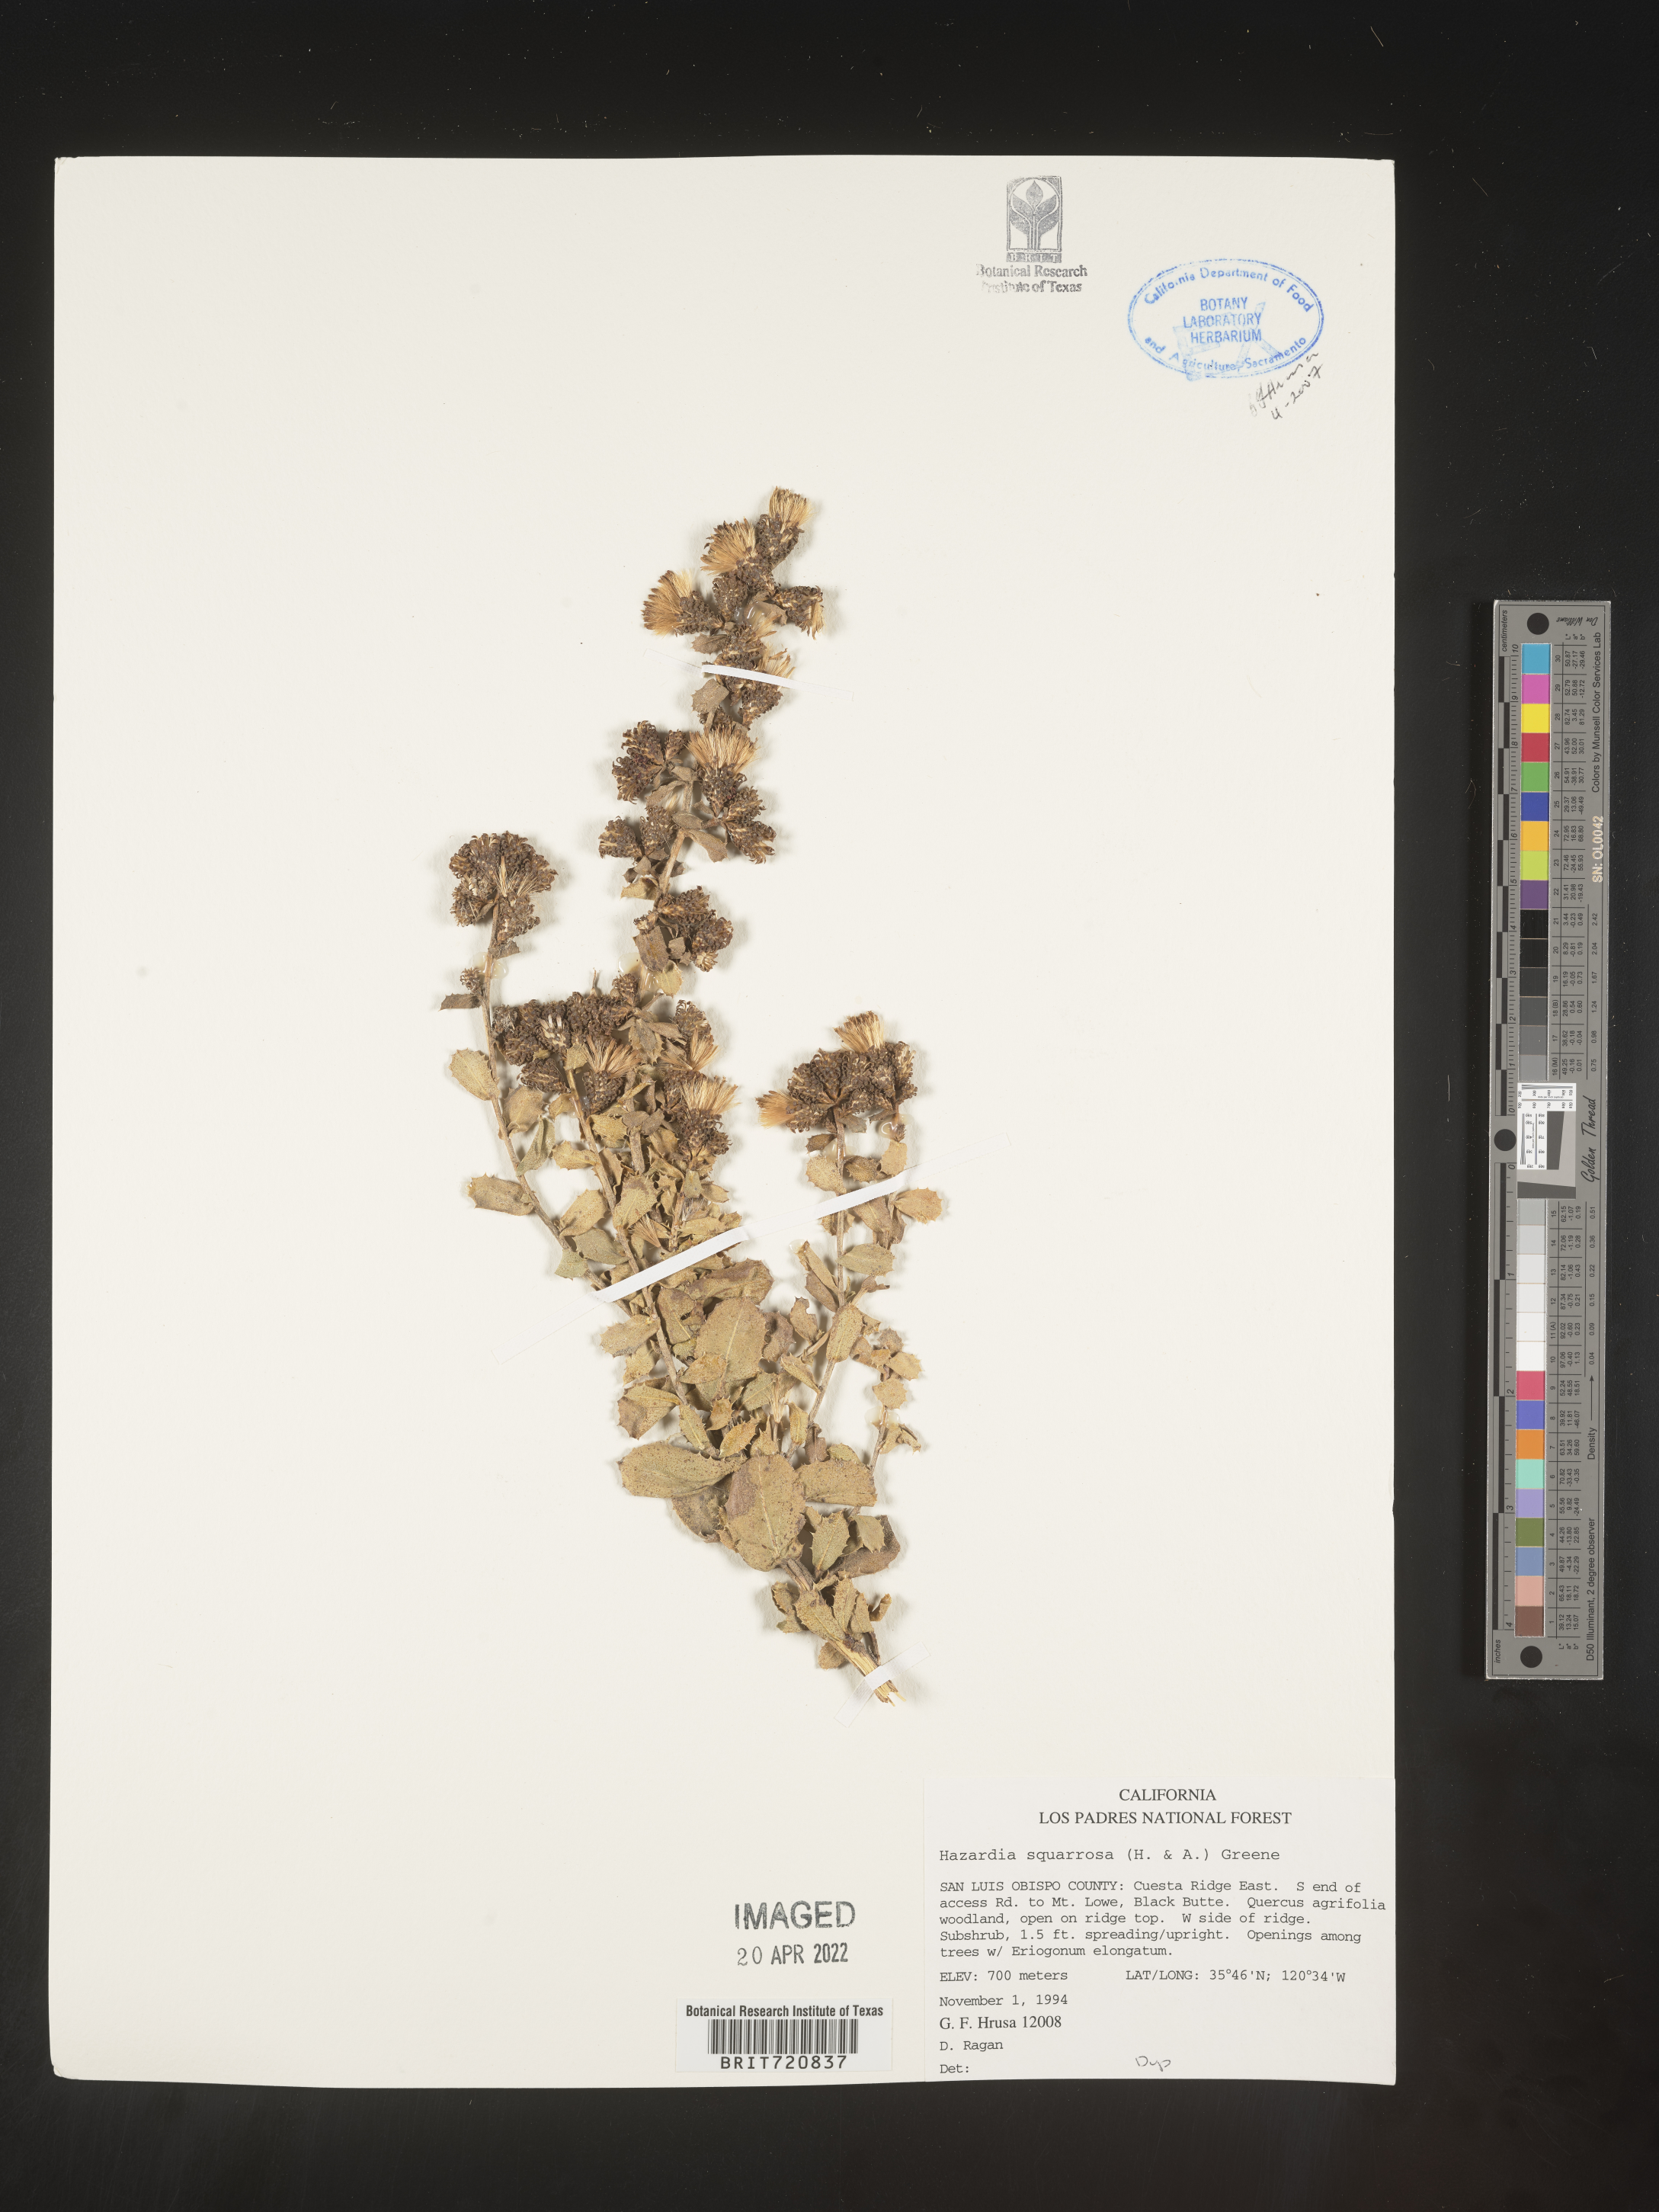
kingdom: Plantae
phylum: Tracheophyta
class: Magnoliopsida
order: Asterales
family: Asteraceae
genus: Hazardia
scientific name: Hazardia squarrosa
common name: Saw-tooth goldenbush
